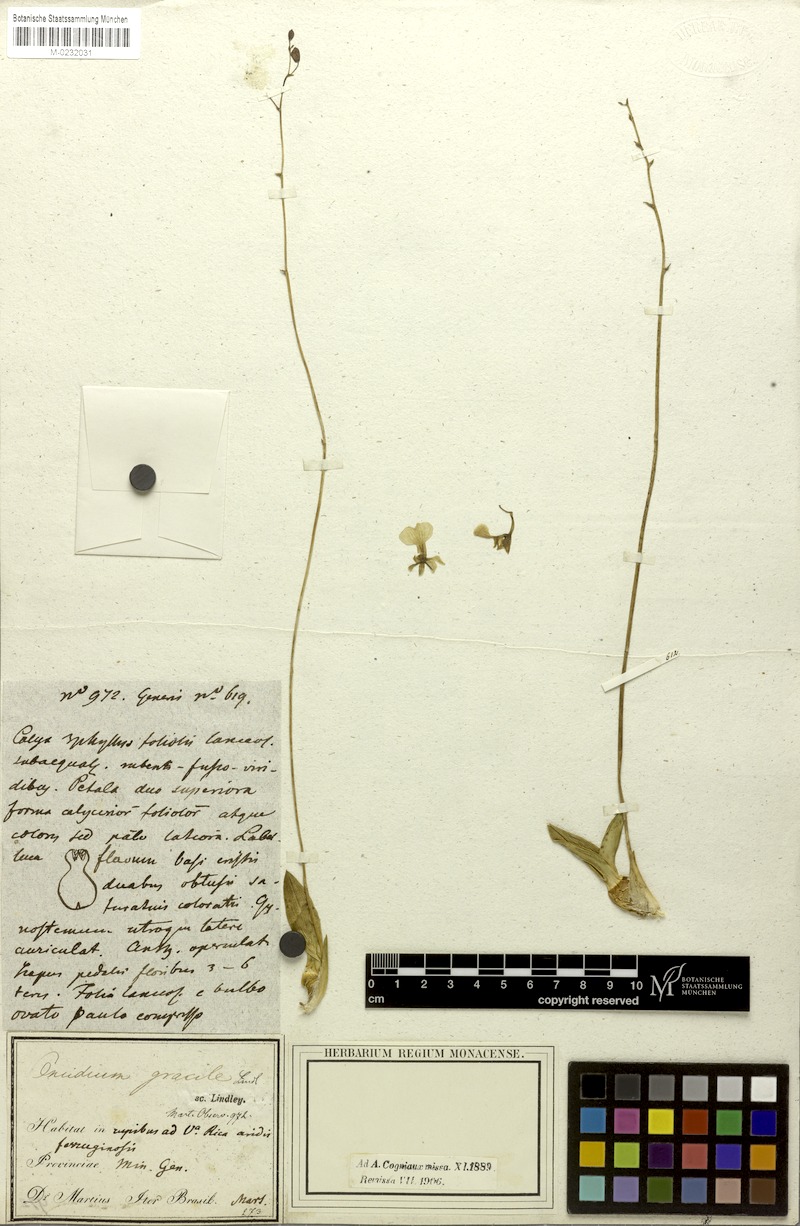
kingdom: Plantae
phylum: Tracheophyta
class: Liliopsida
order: Asparagales
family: Orchidaceae
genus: Gomesa
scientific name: Gomesa gracilis
